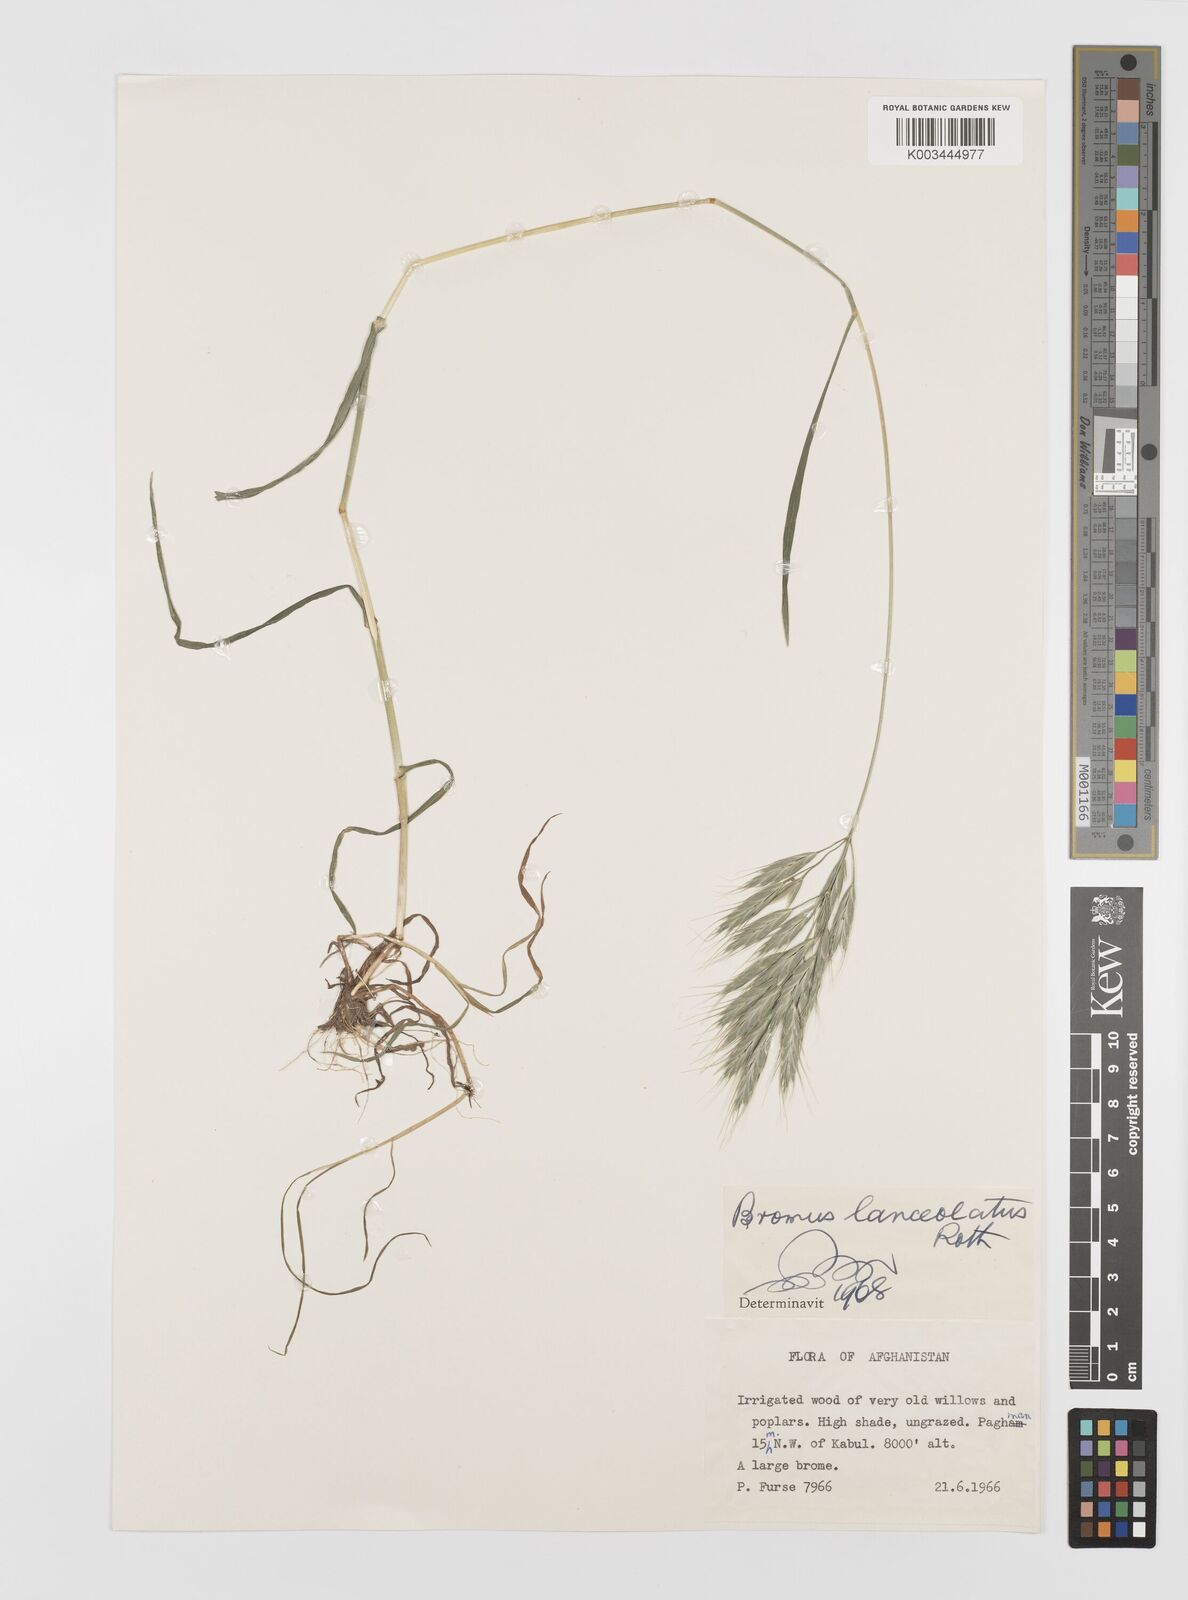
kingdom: Plantae
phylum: Tracheophyta
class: Liliopsida
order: Poales
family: Poaceae
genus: Bromus
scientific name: Bromus lanceolatus
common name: Mediterranean brome
